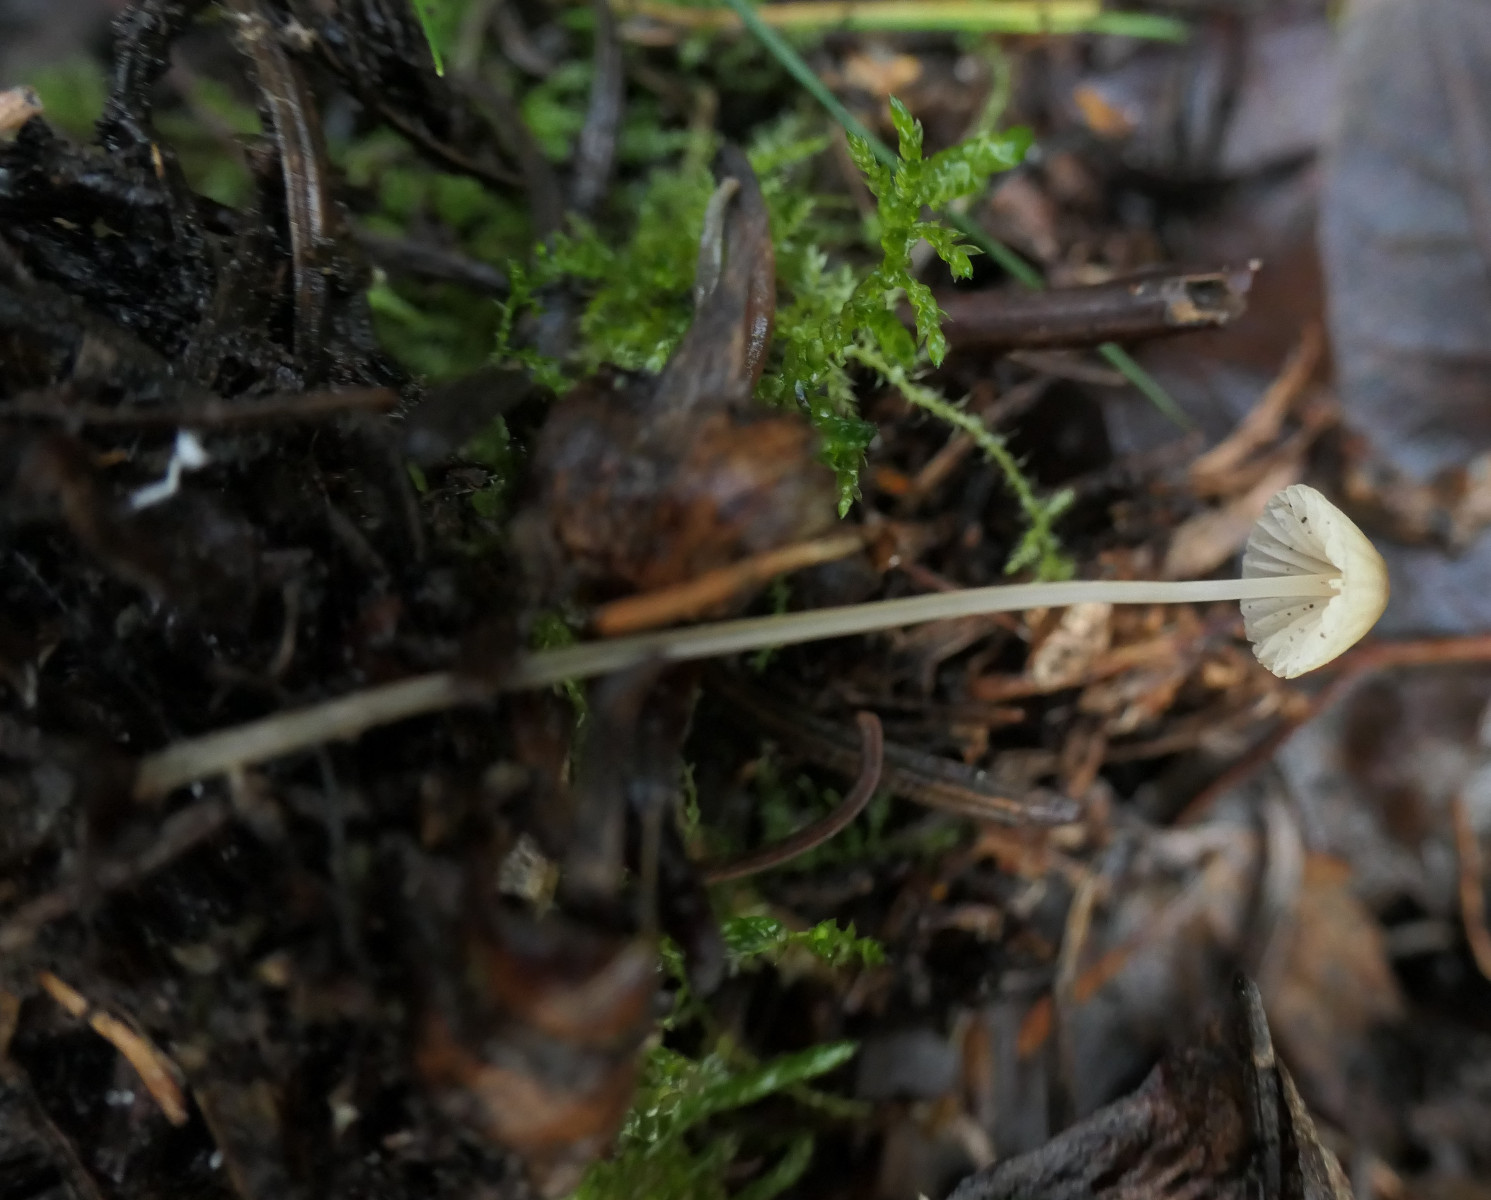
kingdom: Fungi
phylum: Basidiomycota
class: Agaricomycetes
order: Agaricales
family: Mycenaceae
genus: Mycena
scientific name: Mycena citrinomarginata
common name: gulægget huesvamp
